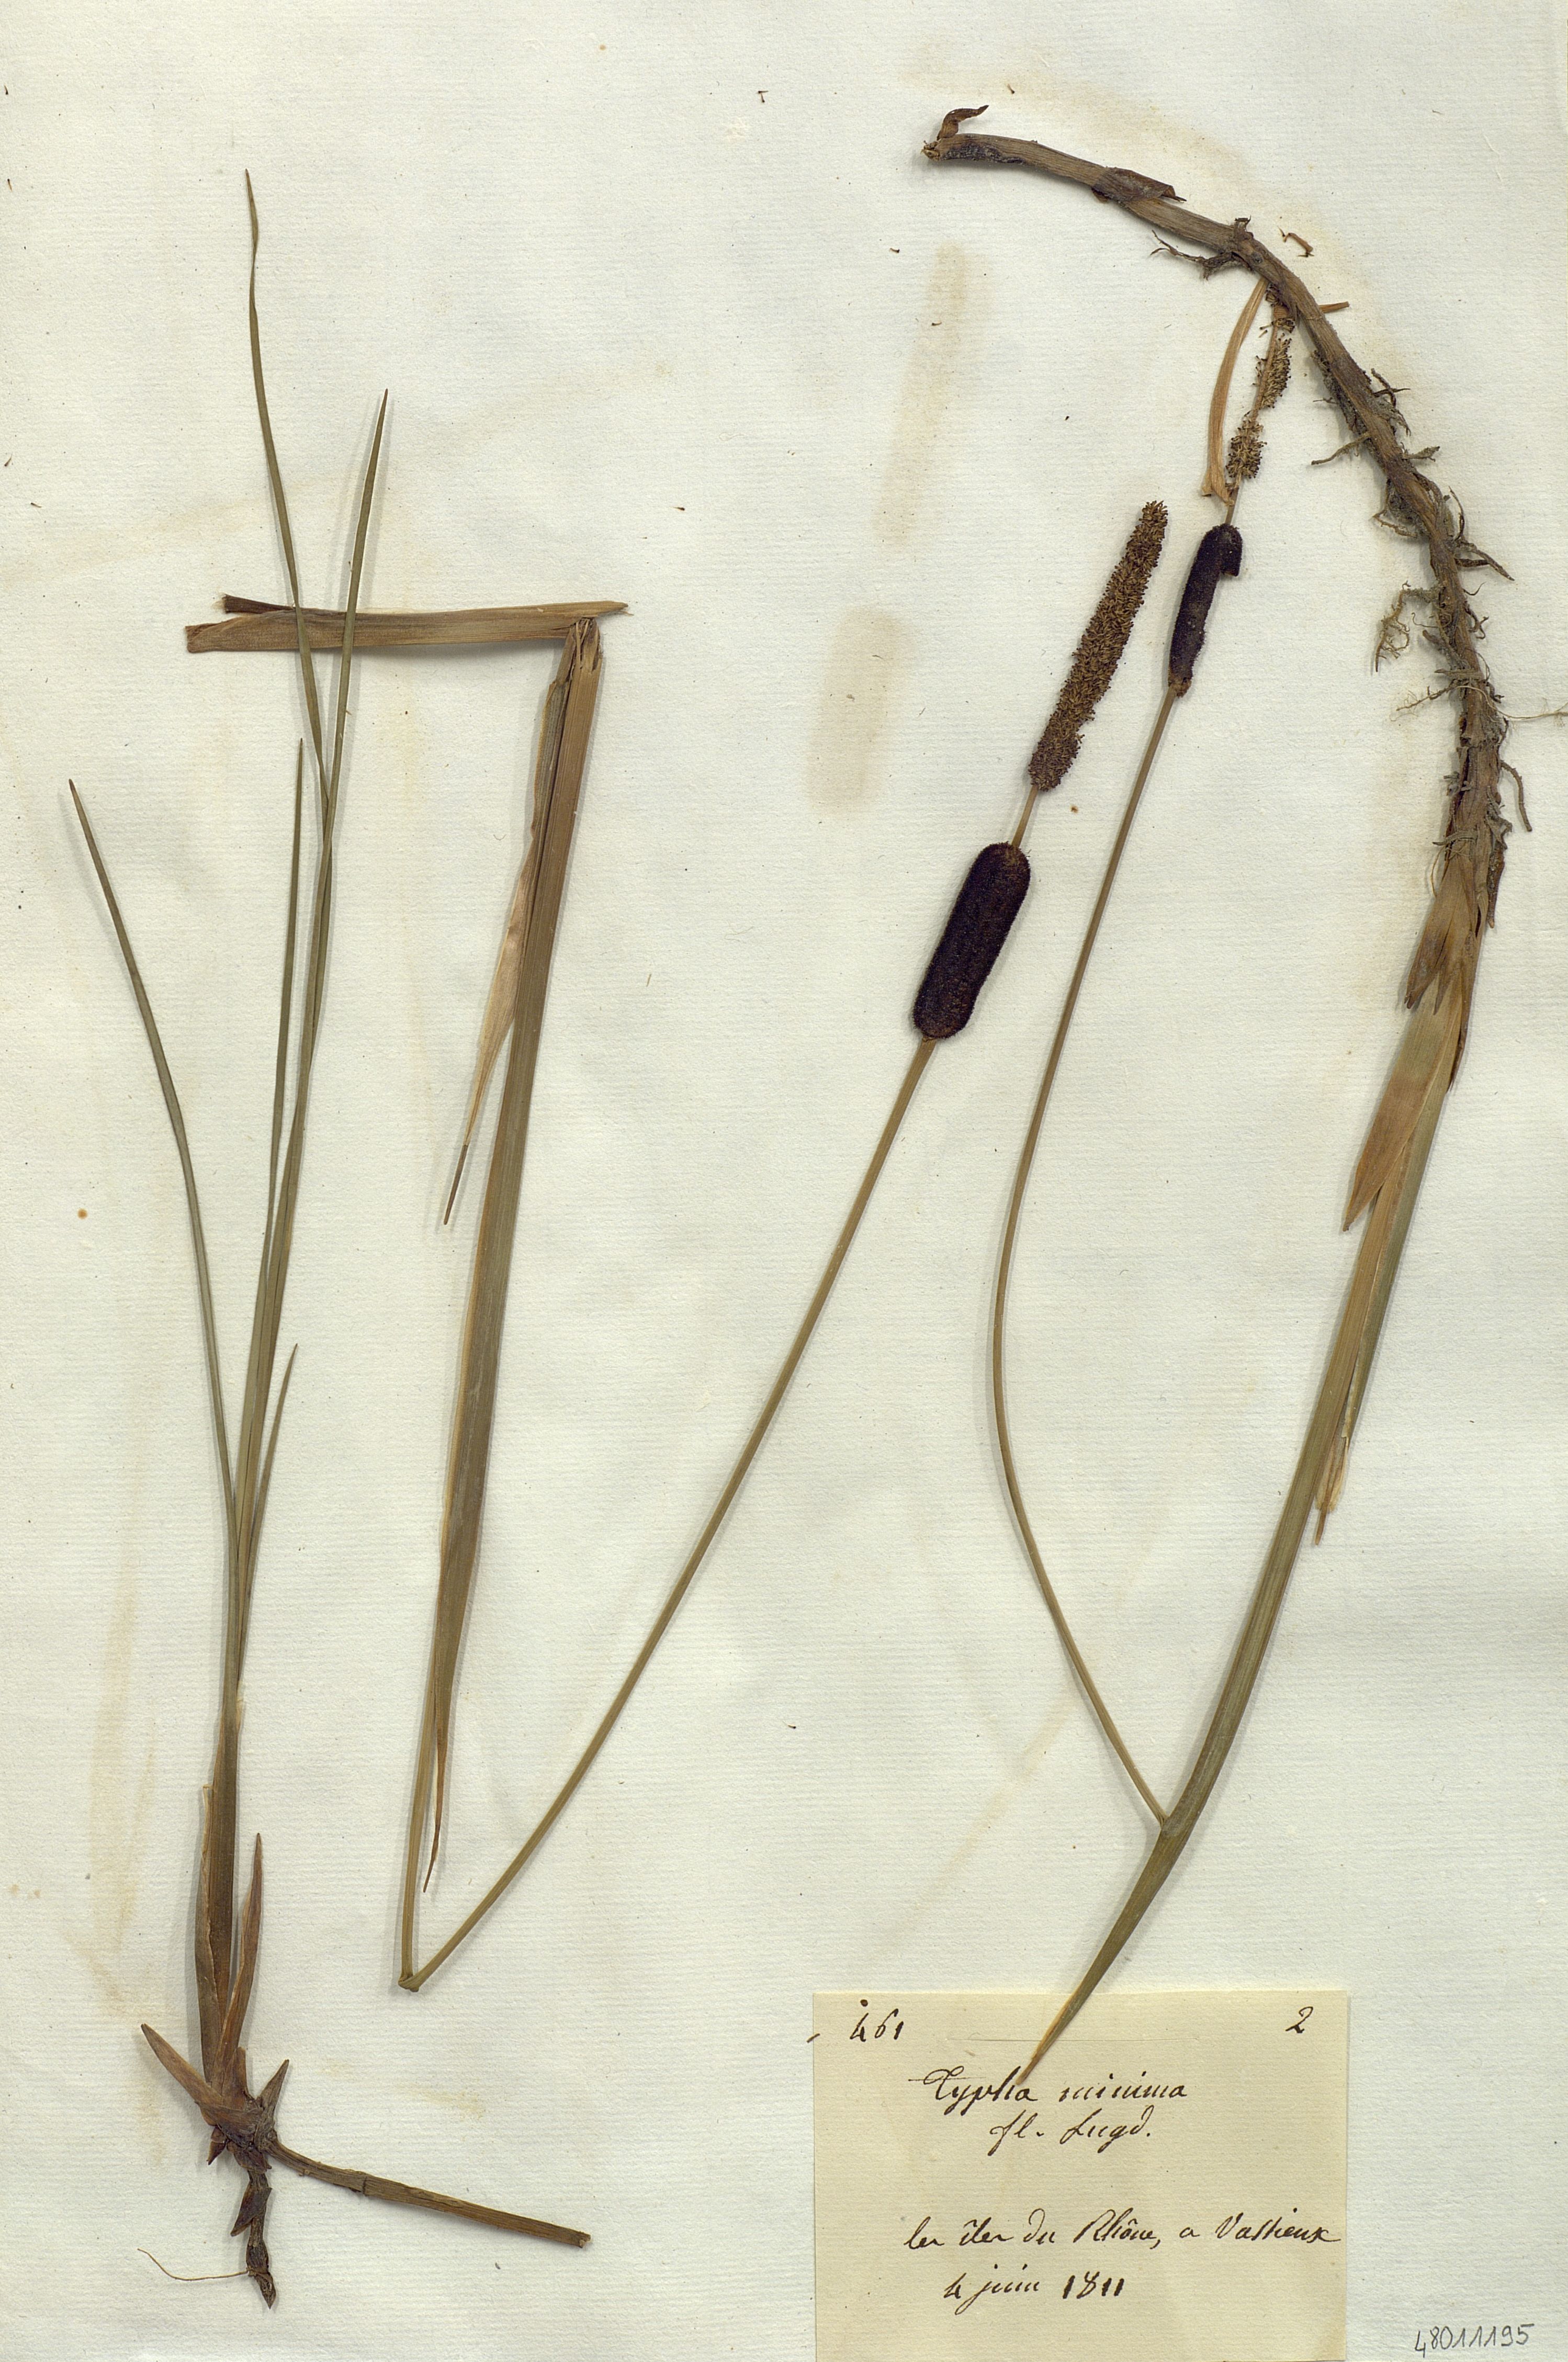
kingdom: Plantae
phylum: Tracheophyta
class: Liliopsida
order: Poales
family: Typhaceae
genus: Typha
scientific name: Typha minima
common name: Dwarf bulrush
